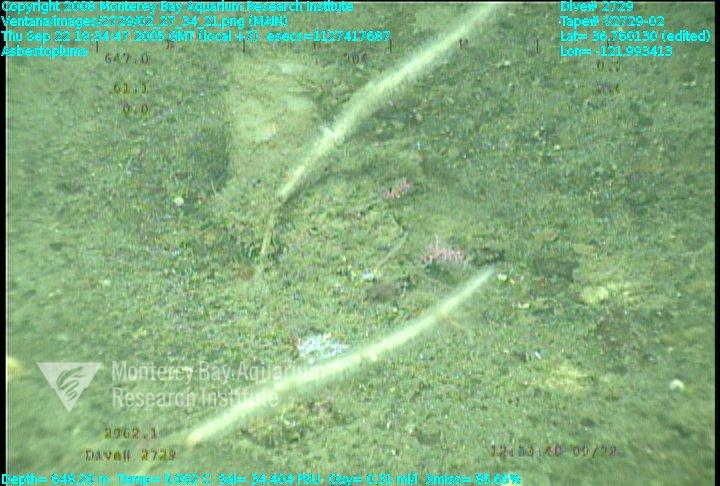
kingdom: Animalia
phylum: Porifera
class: Demospongiae
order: Poecilosclerida
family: Cladorhizidae
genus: Asbestopluma
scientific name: Asbestopluma
